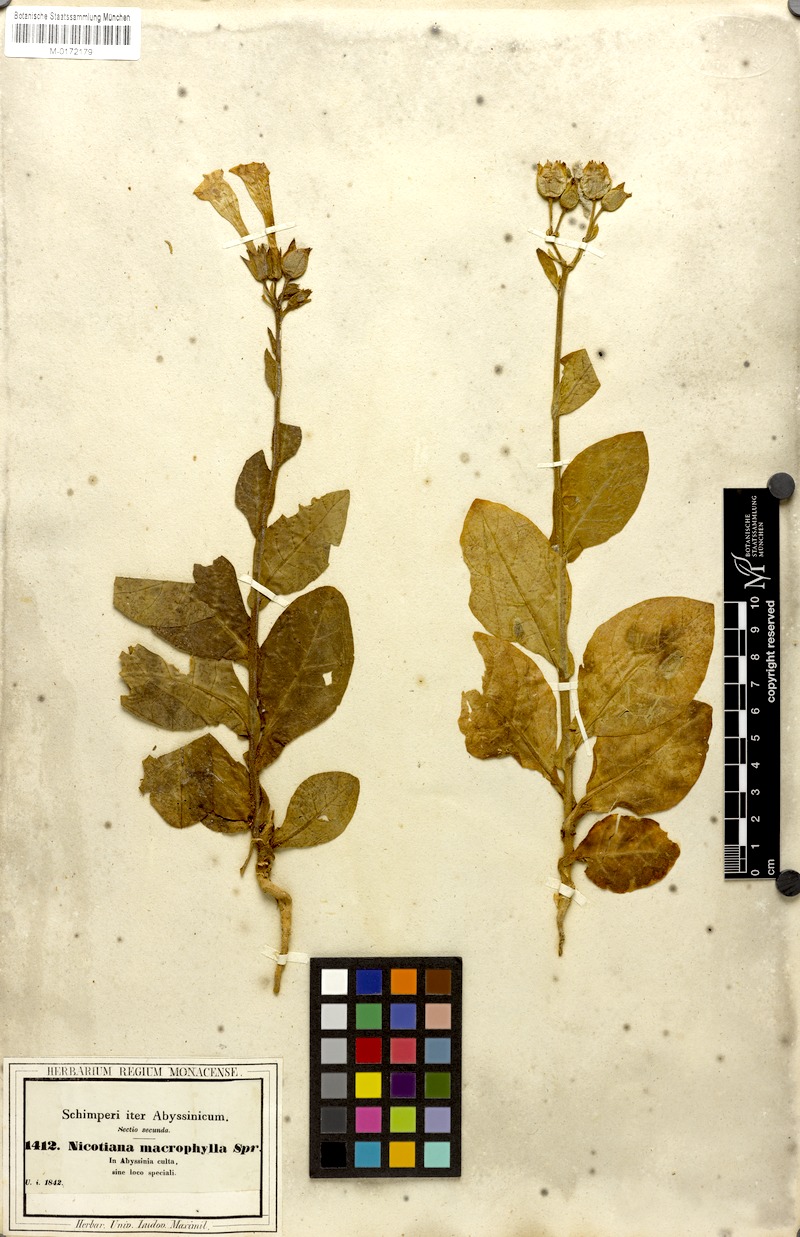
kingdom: Plantae
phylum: Tracheophyta
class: Magnoliopsida
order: Solanales
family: Solanaceae
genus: Nicotiana
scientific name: Nicotiana tabacum
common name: Tobacco
